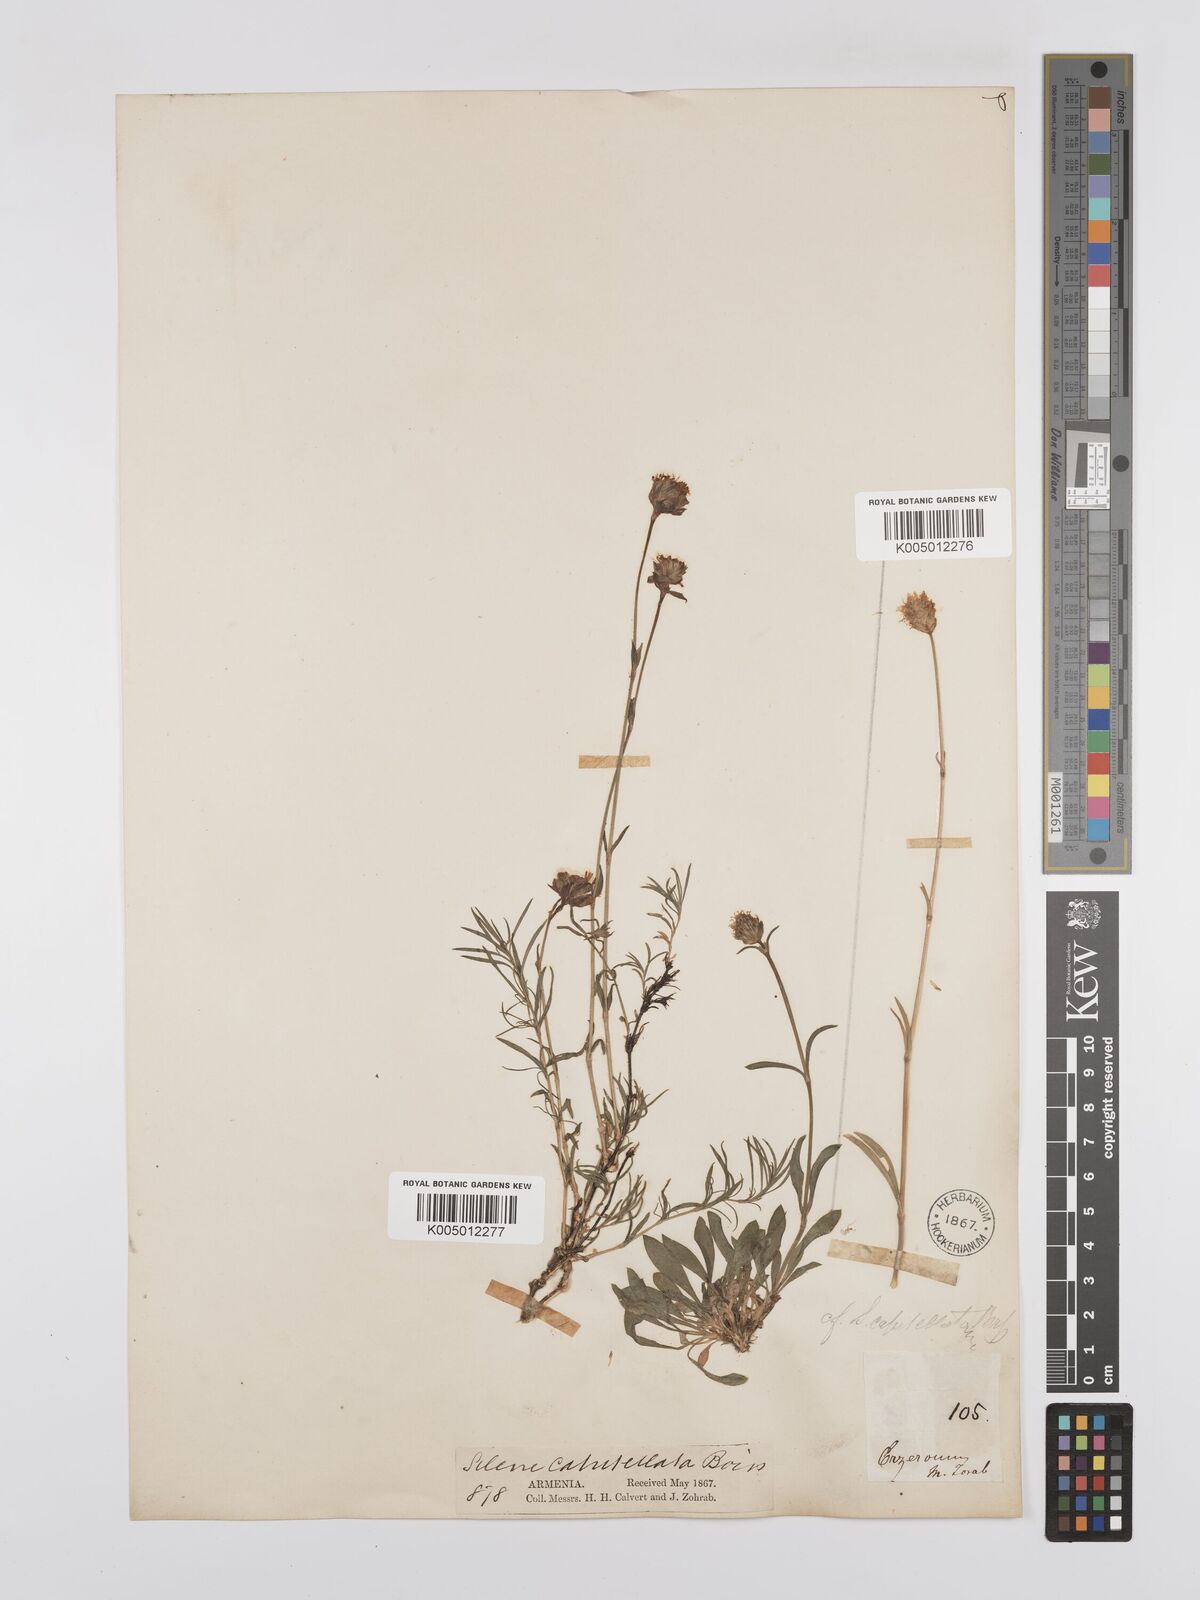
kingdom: Plantae
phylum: Tracheophyta
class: Magnoliopsida
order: Caryophyllales
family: Caryophyllaceae
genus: Silene
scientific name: Silene capitellata
